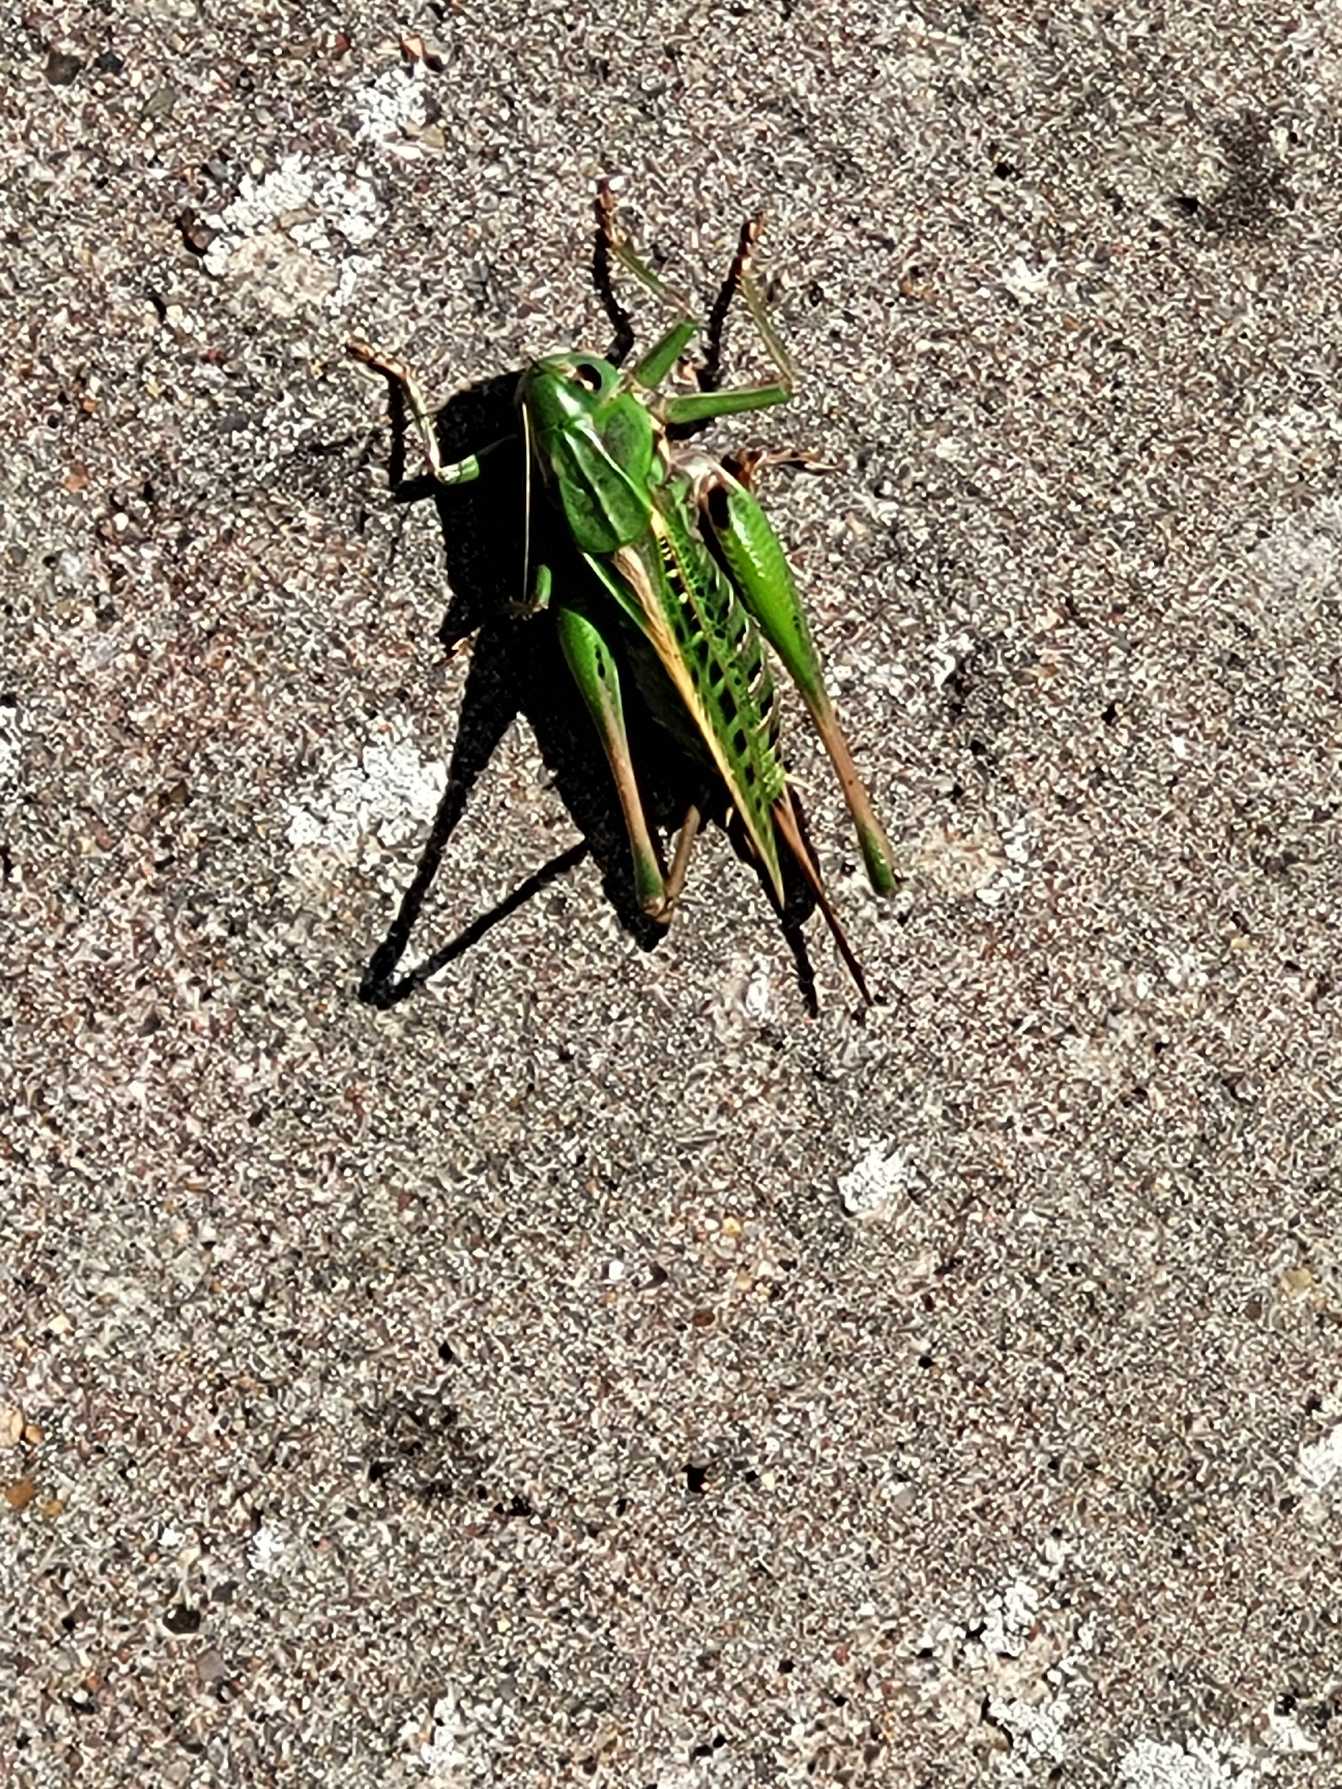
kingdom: Animalia
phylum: Arthropoda
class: Insecta
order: Orthoptera
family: Tettigoniidae
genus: Decticus
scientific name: Decticus verrucivorus
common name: Vortebider
